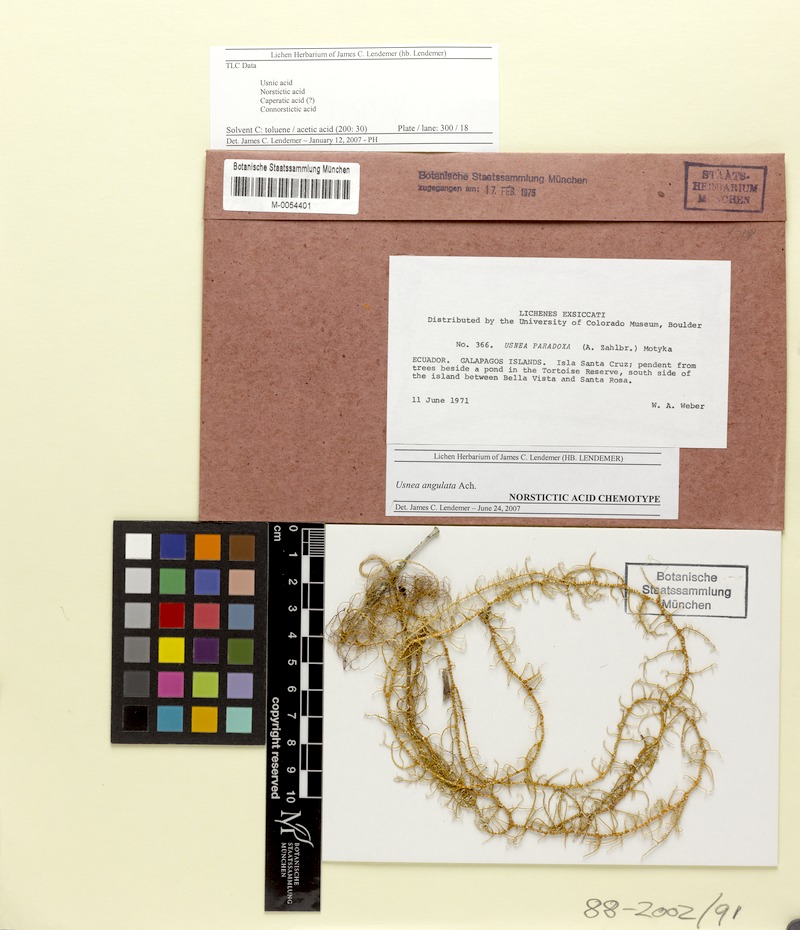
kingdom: Fungi
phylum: Ascomycota
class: Lecanoromycetes
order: Lecanorales
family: Parmeliaceae
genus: Usnea
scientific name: Usnea angulata
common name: Old-man’s beard lichen
